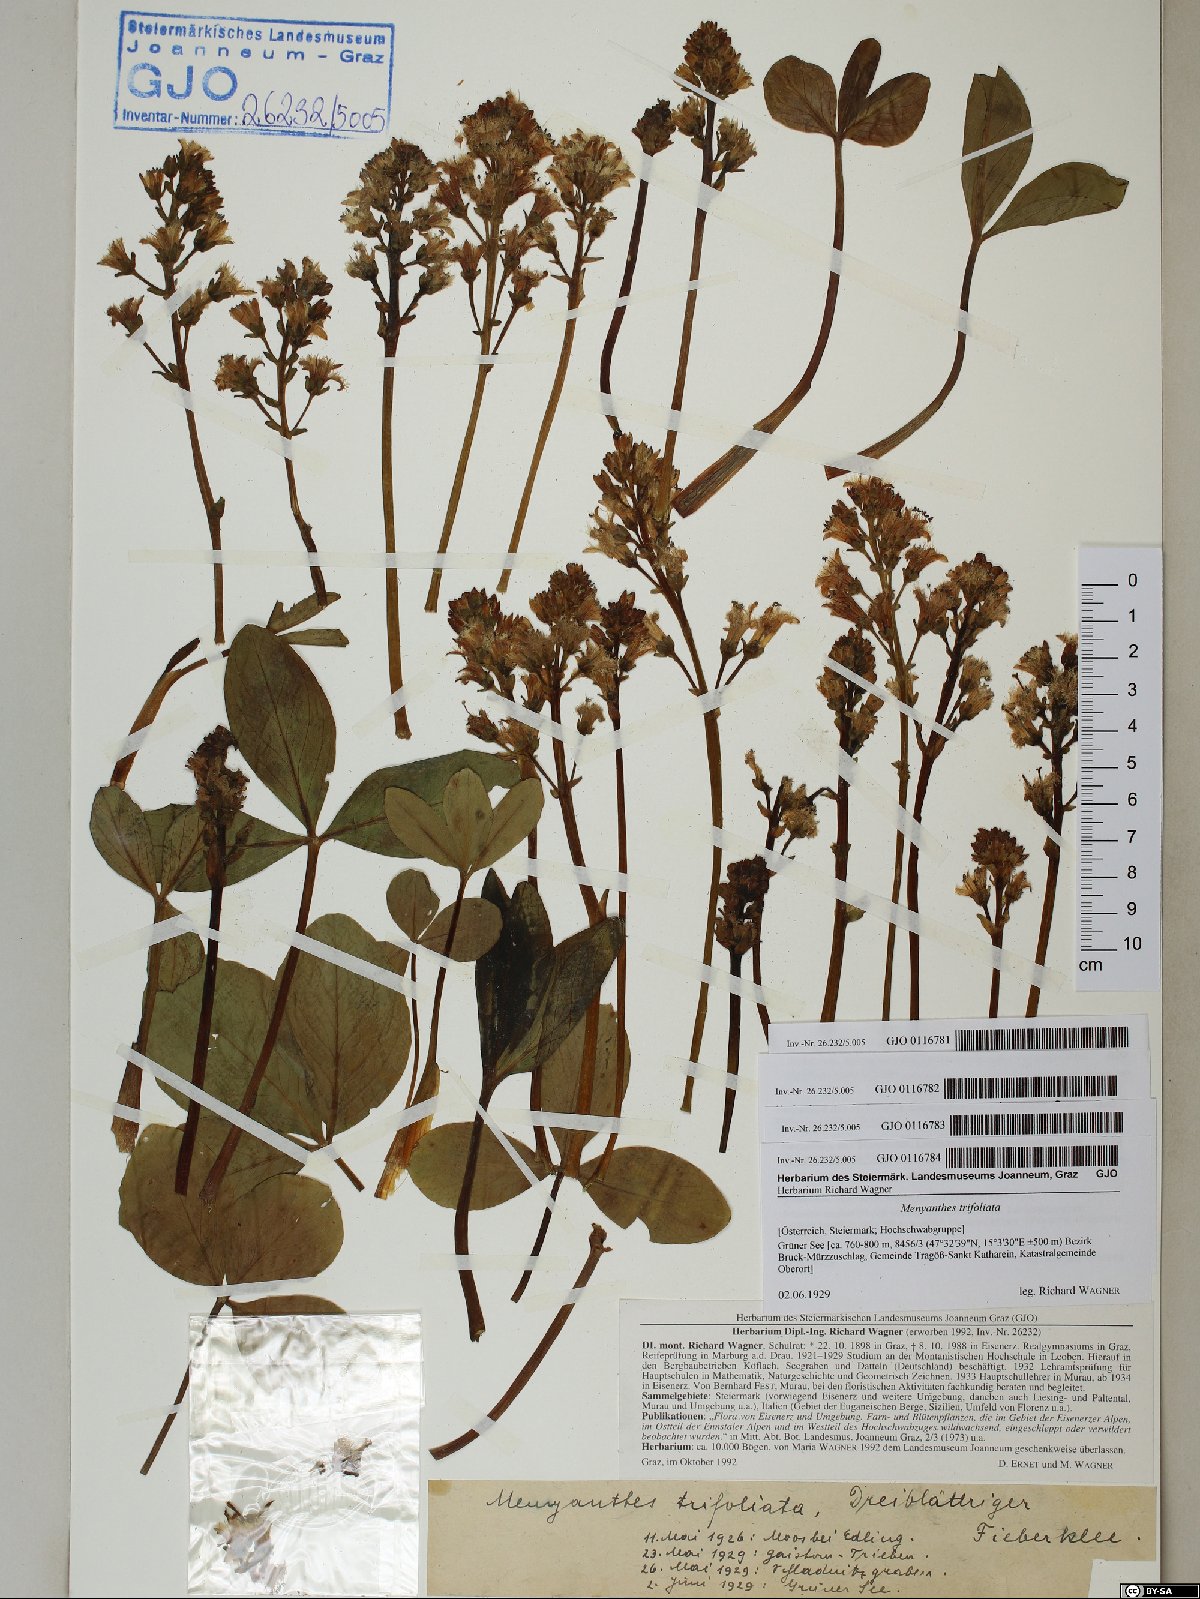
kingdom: Plantae
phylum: Tracheophyta
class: Magnoliopsida
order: Asterales
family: Menyanthaceae
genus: Menyanthes
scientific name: Menyanthes trifoliata
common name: Bogbean
